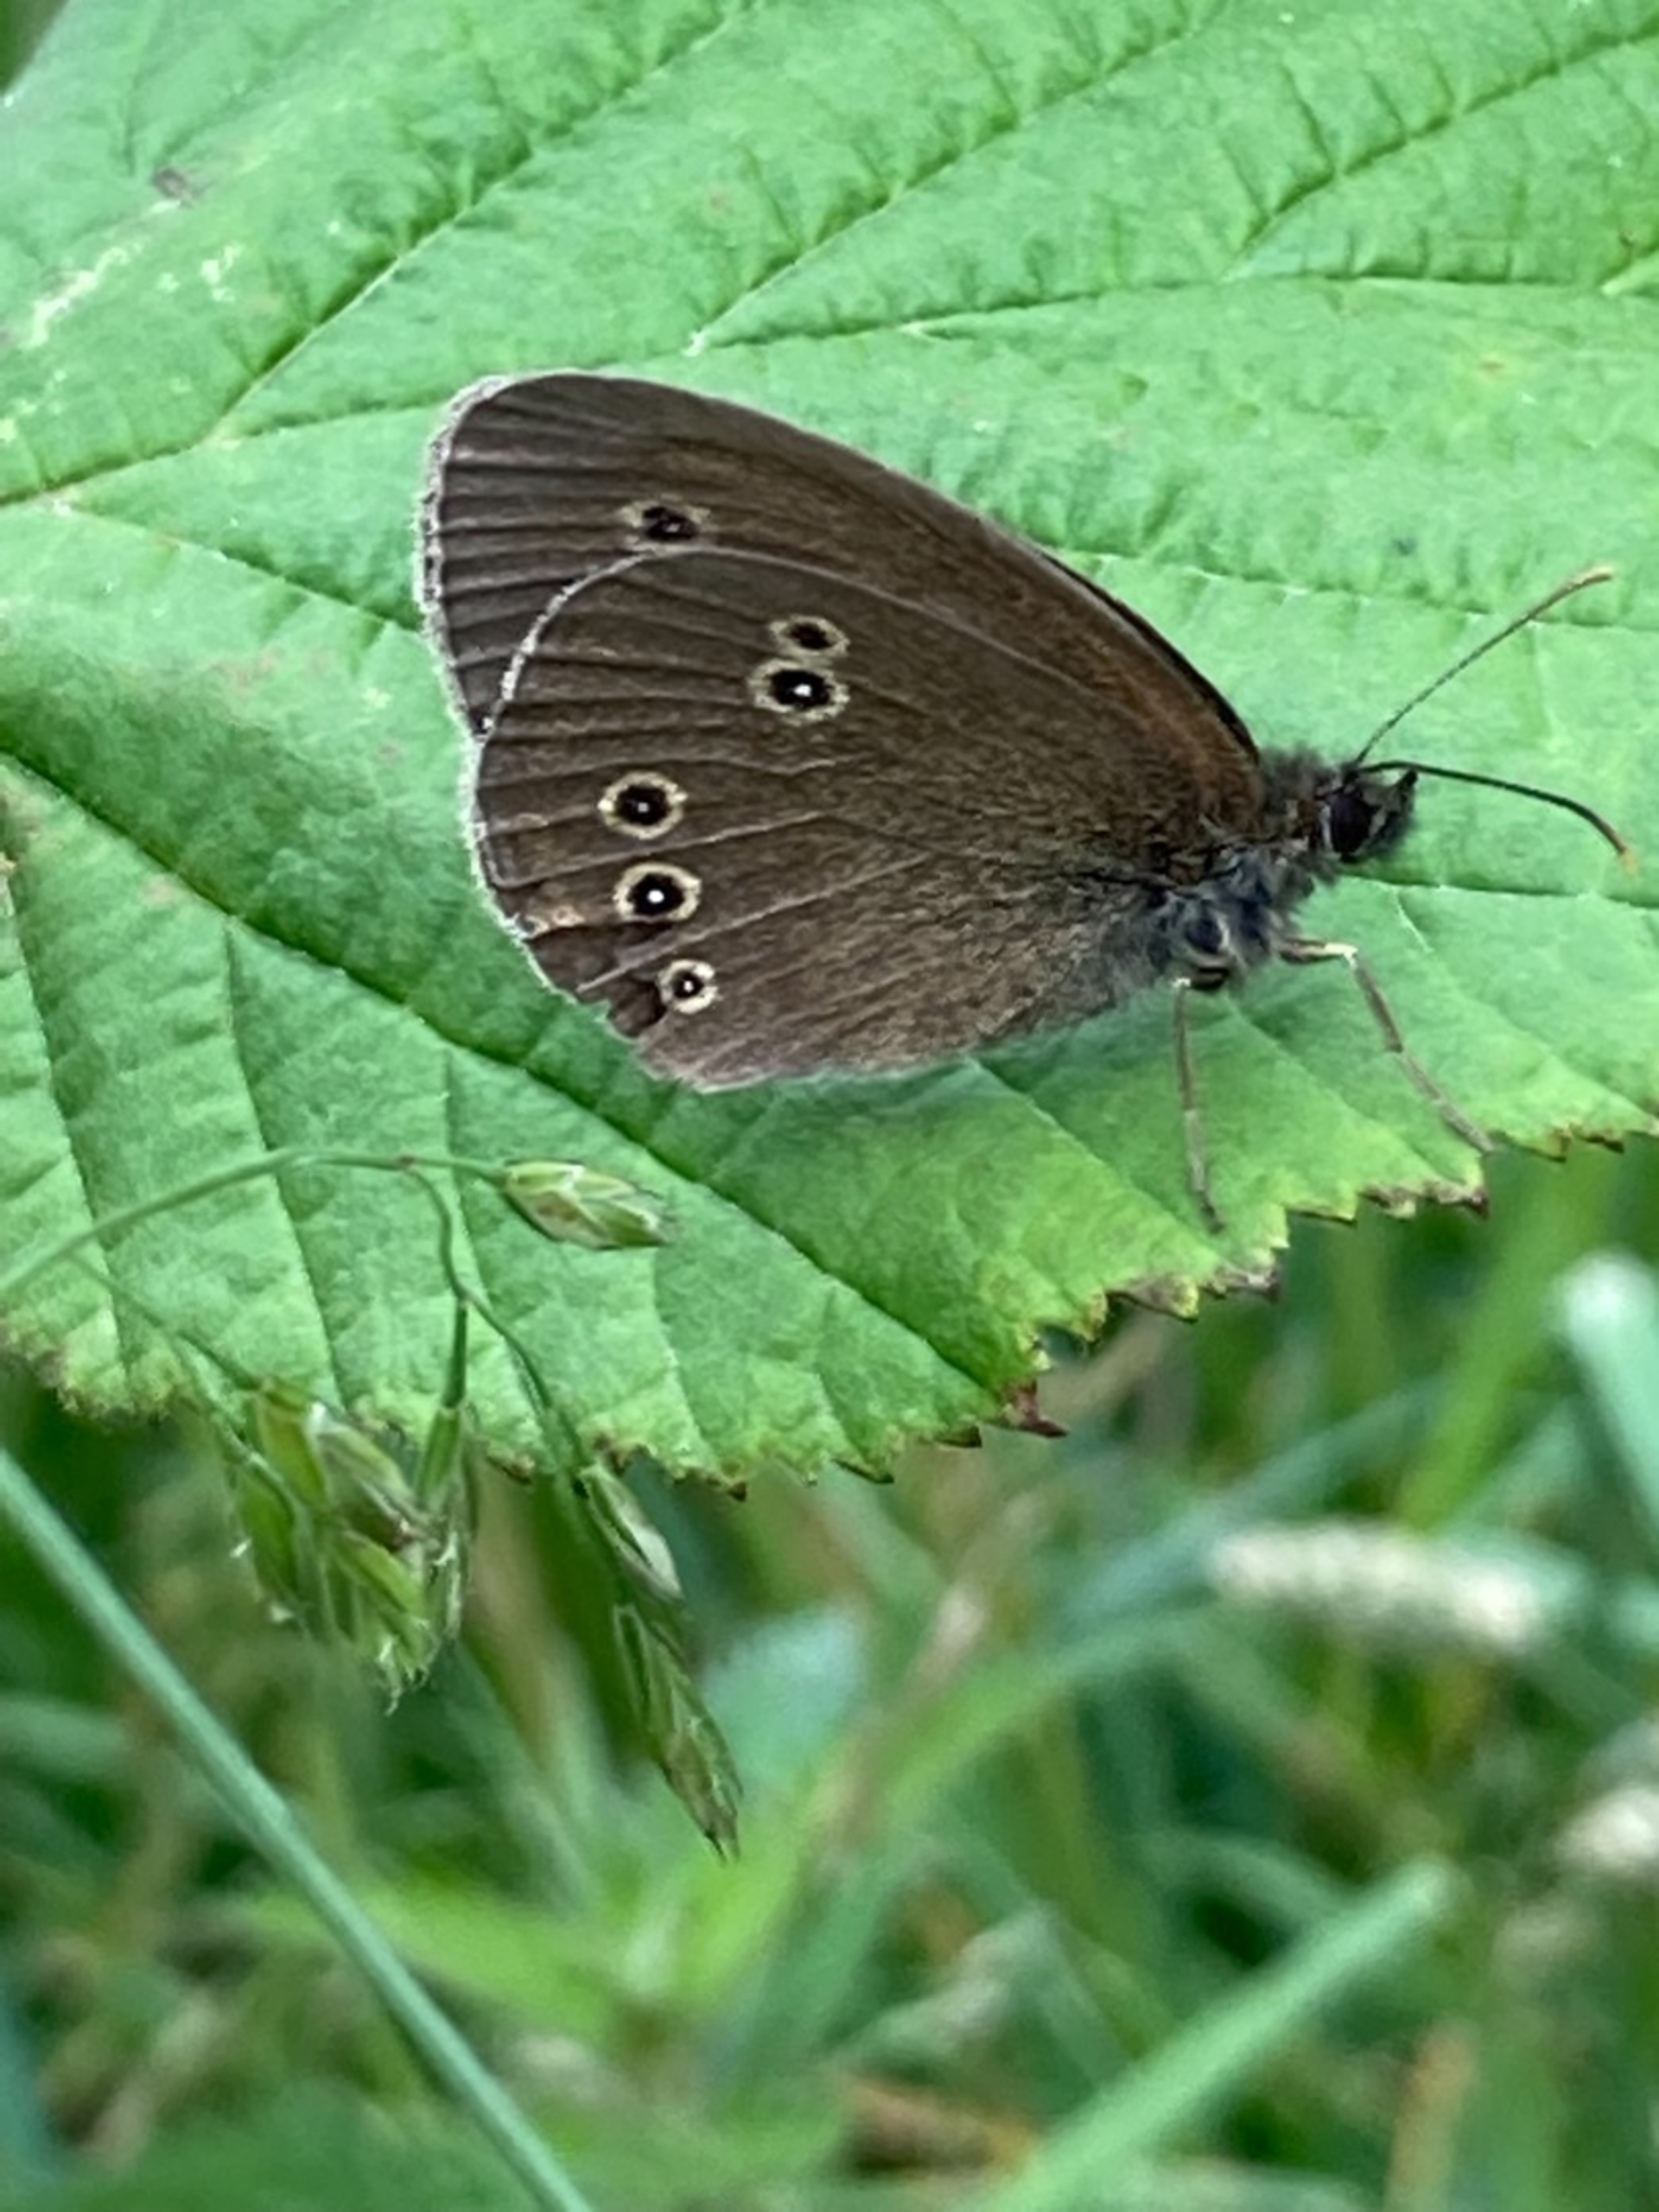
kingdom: Animalia
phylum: Arthropoda
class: Insecta
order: Lepidoptera
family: Nymphalidae
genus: Aphantopus
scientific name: Aphantopus hyperantus
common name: Engrandøje
